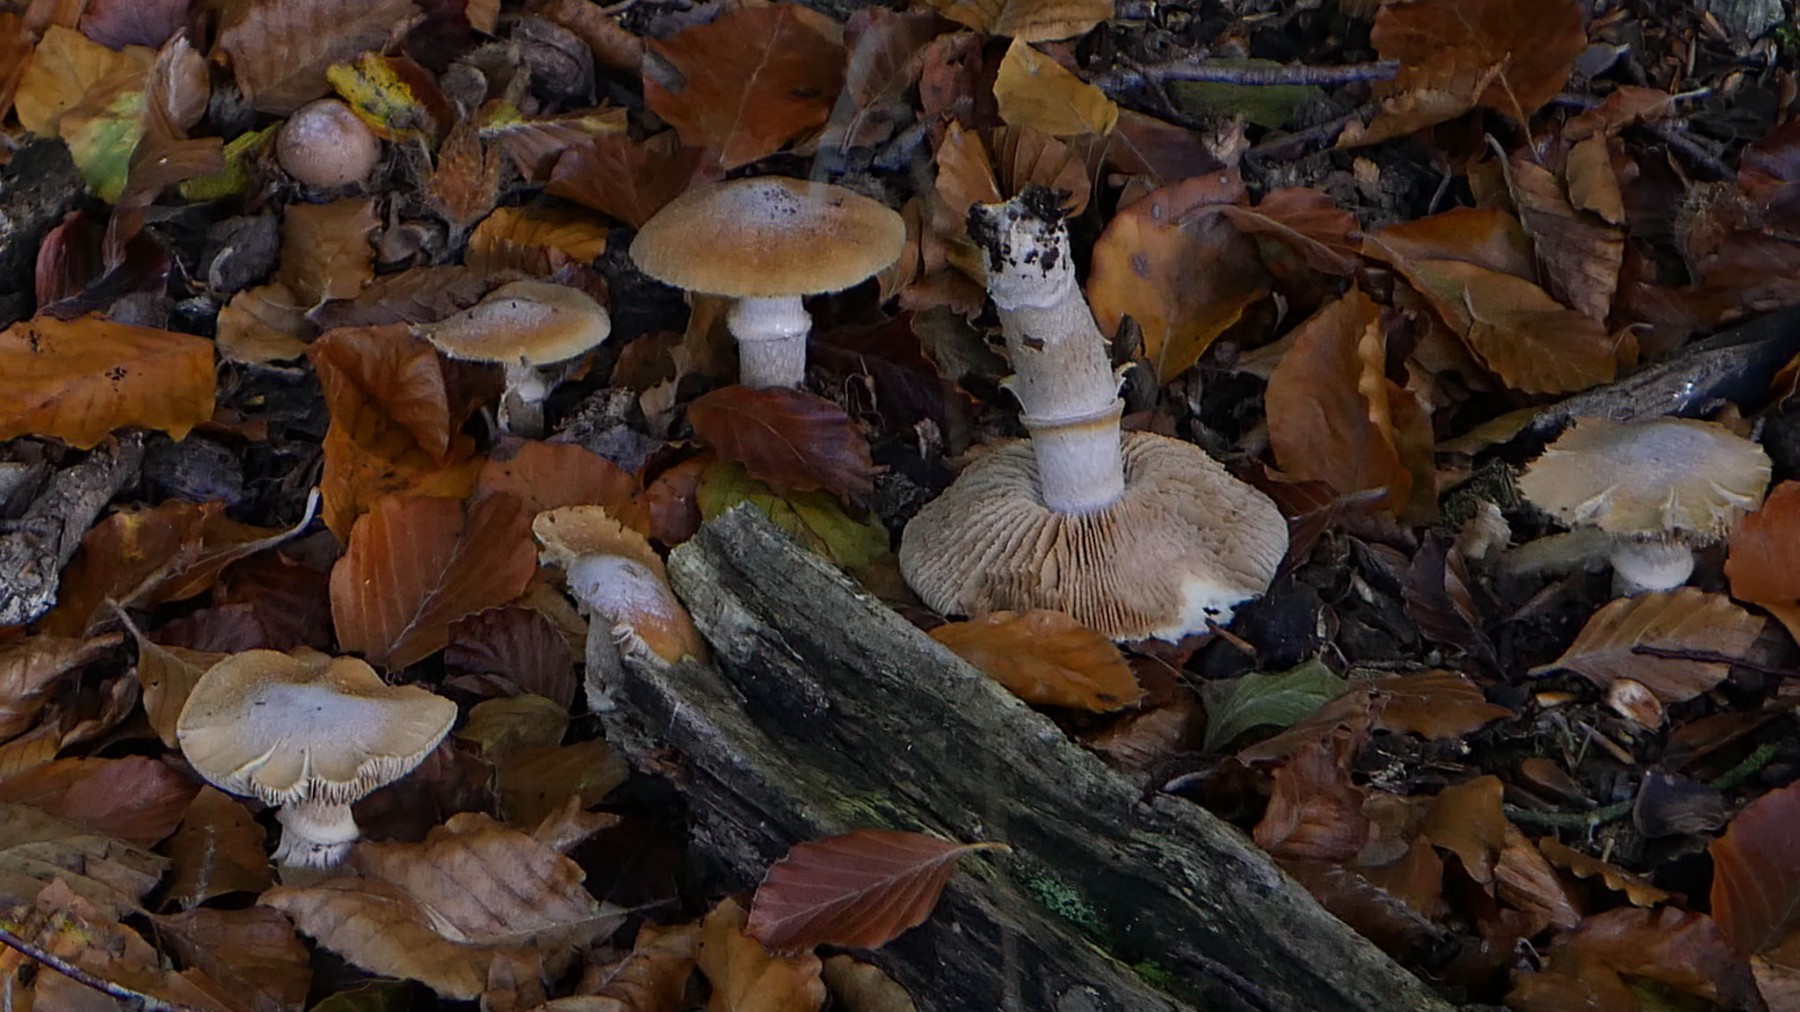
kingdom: Fungi
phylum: Basidiomycota
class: Agaricomycetes
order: Agaricales
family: Cortinariaceae
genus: Cortinarius
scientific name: Cortinarius caperatus
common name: klidhat
